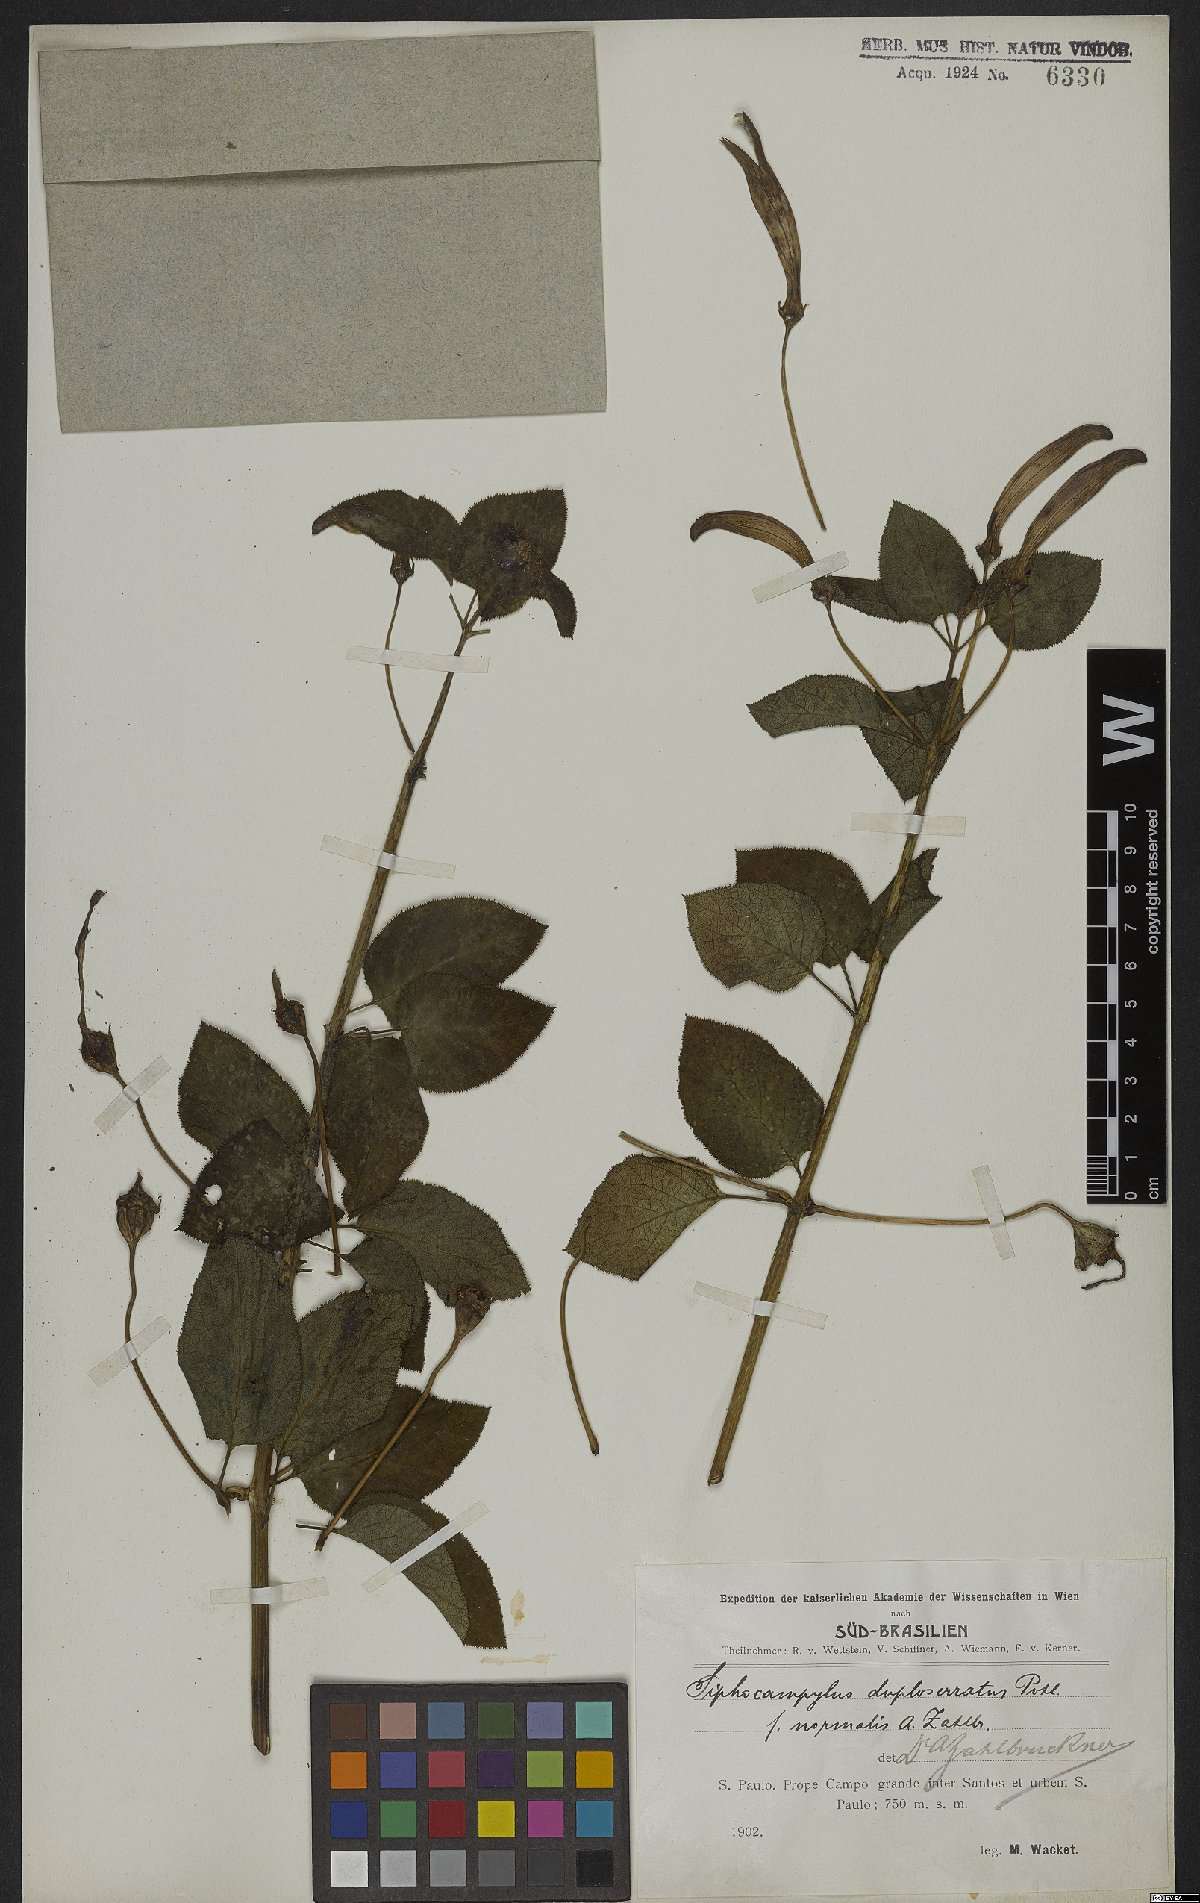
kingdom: Plantae
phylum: Tracheophyta
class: Magnoliopsida
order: Asterales
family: Campanulaceae
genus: Siphocampylus
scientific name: Siphocampylus fluminensis
